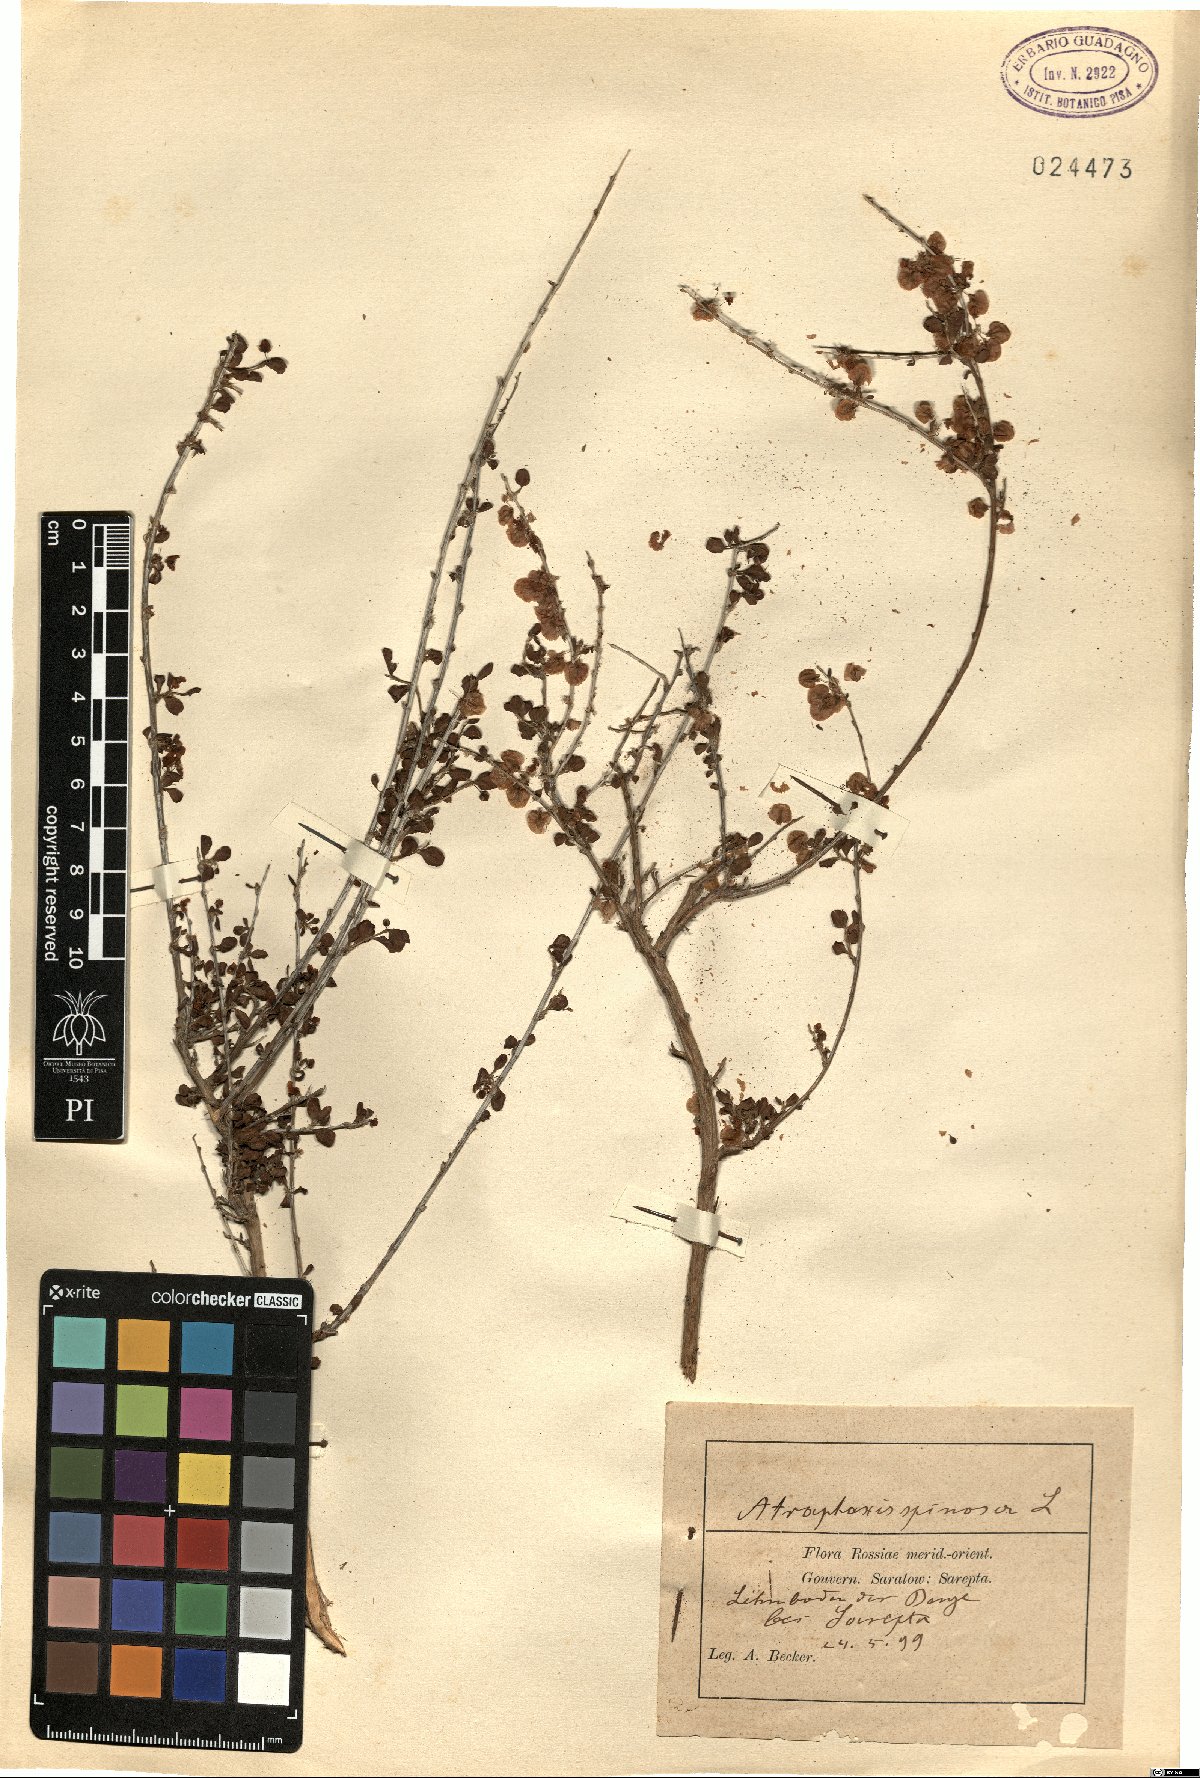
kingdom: Plantae
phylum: Tracheophyta
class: Magnoliopsida
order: Caryophyllales
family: Polygonaceae
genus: Atraphaxis
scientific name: Atraphaxis spinosa
